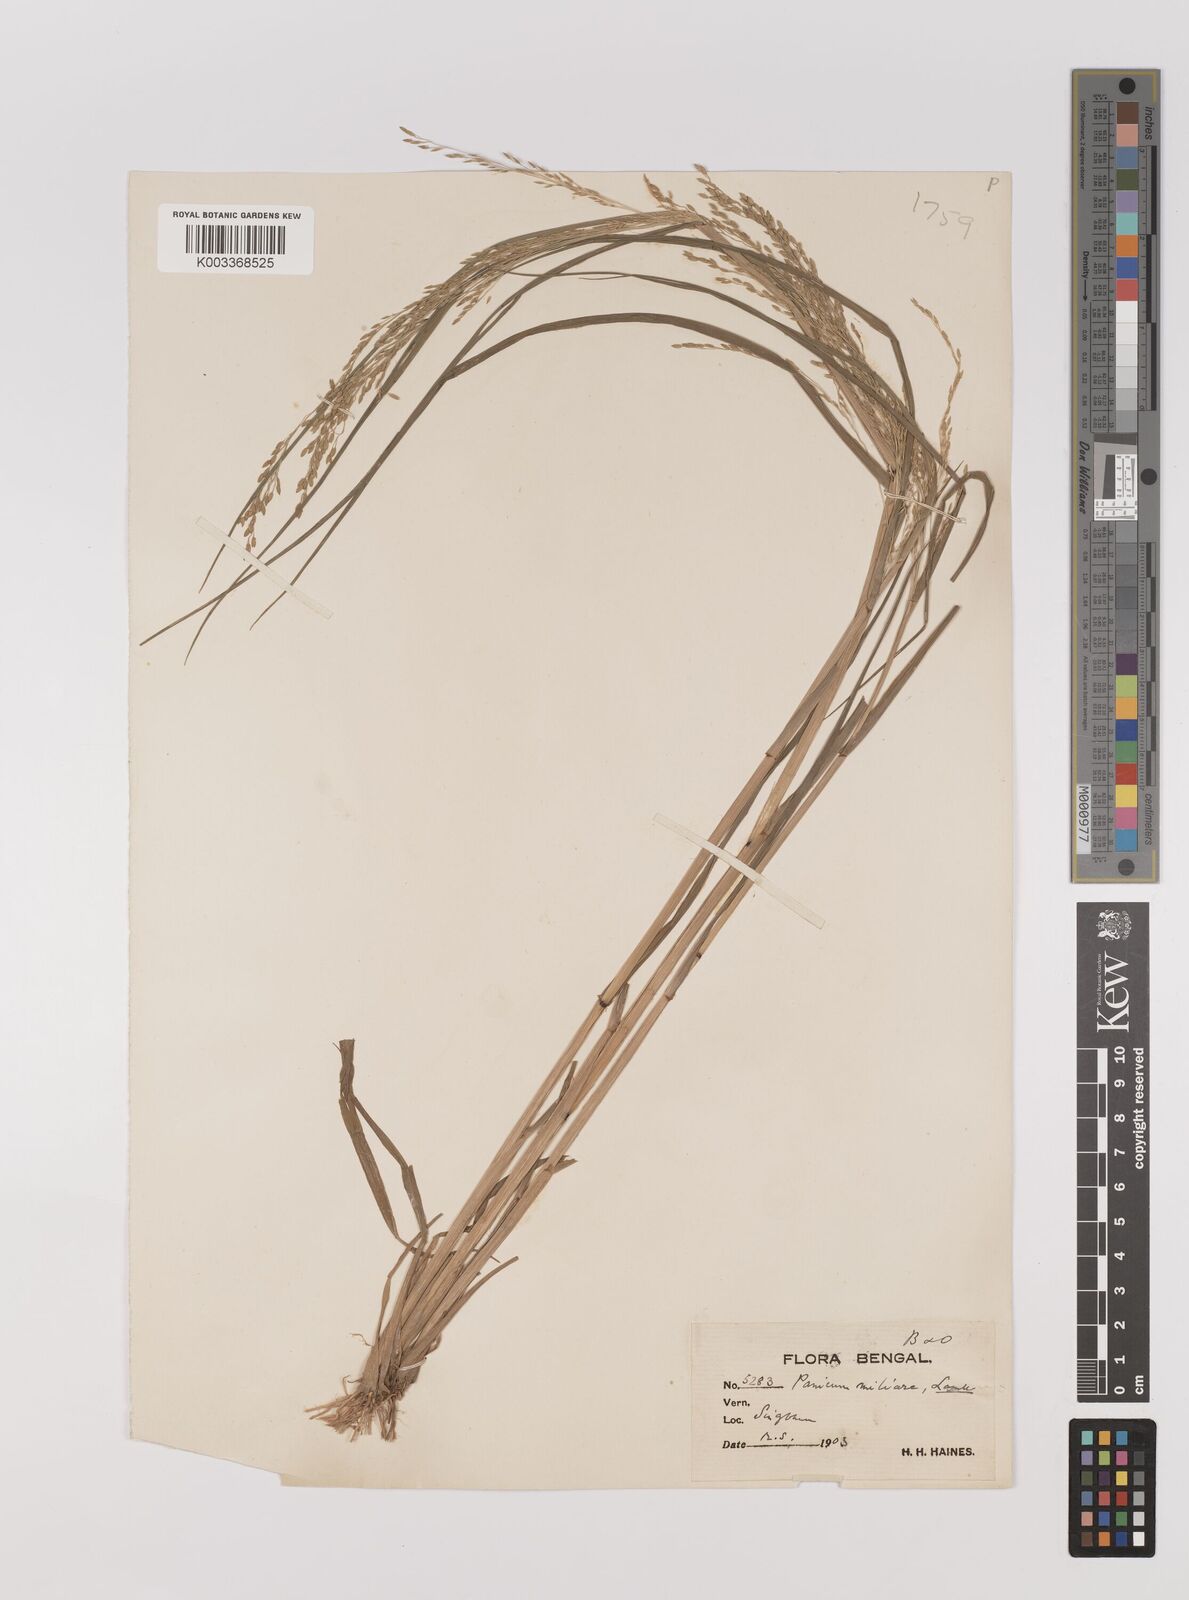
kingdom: Plantae
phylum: Tracheophyta
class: Liliopsida
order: Poales
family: Poaceae
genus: Panicum
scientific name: Panicum sumatrense
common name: Little millet
